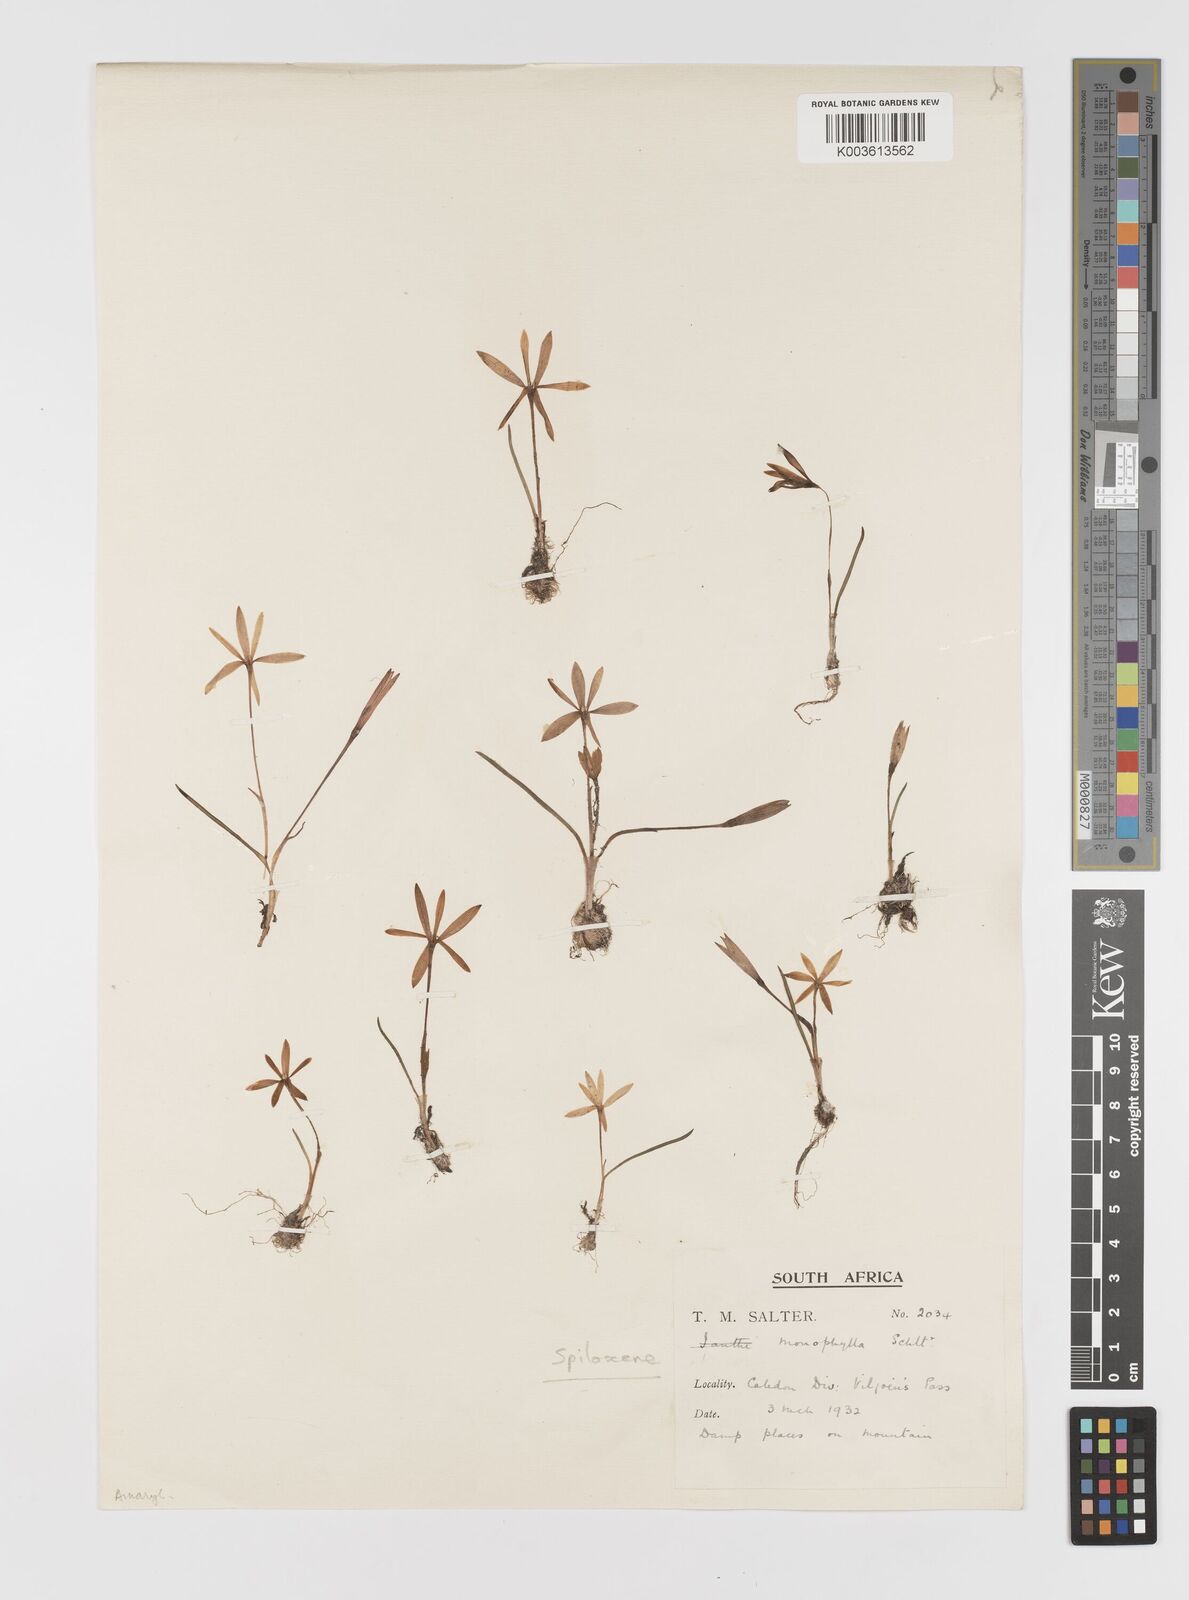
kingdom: Plantae
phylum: Tracheophyta
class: Liliopsida
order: Asparagales
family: Hypoxidaceae
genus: Pauridia
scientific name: Pauridia monophylla
